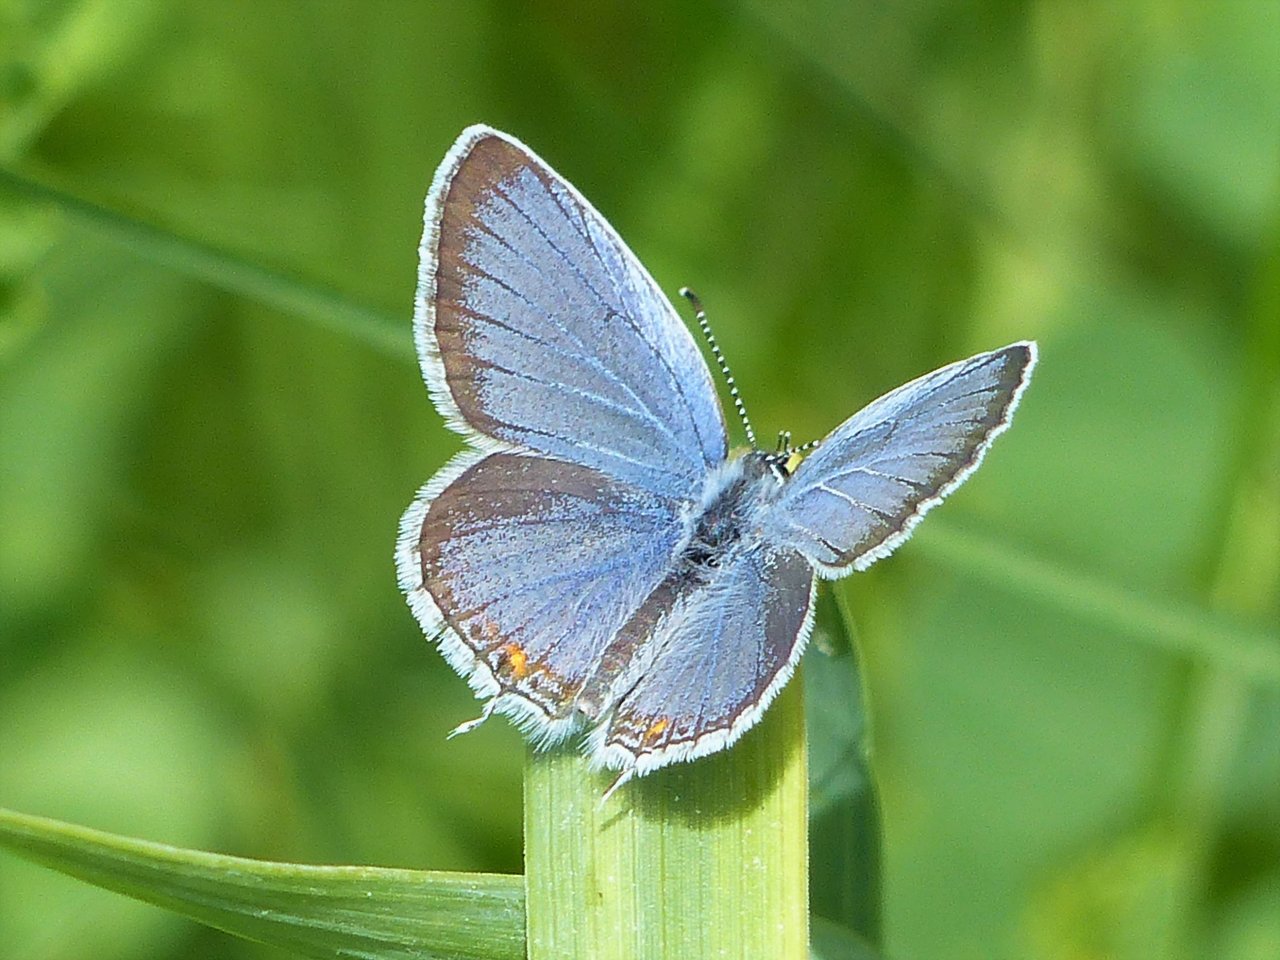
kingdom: Animalia
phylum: Arthropoda
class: Insecta
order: Lepidoptera
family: Lycaenidae
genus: Elkalyce
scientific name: Elkalyce comyntas
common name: Eastern Tailed-Blue
